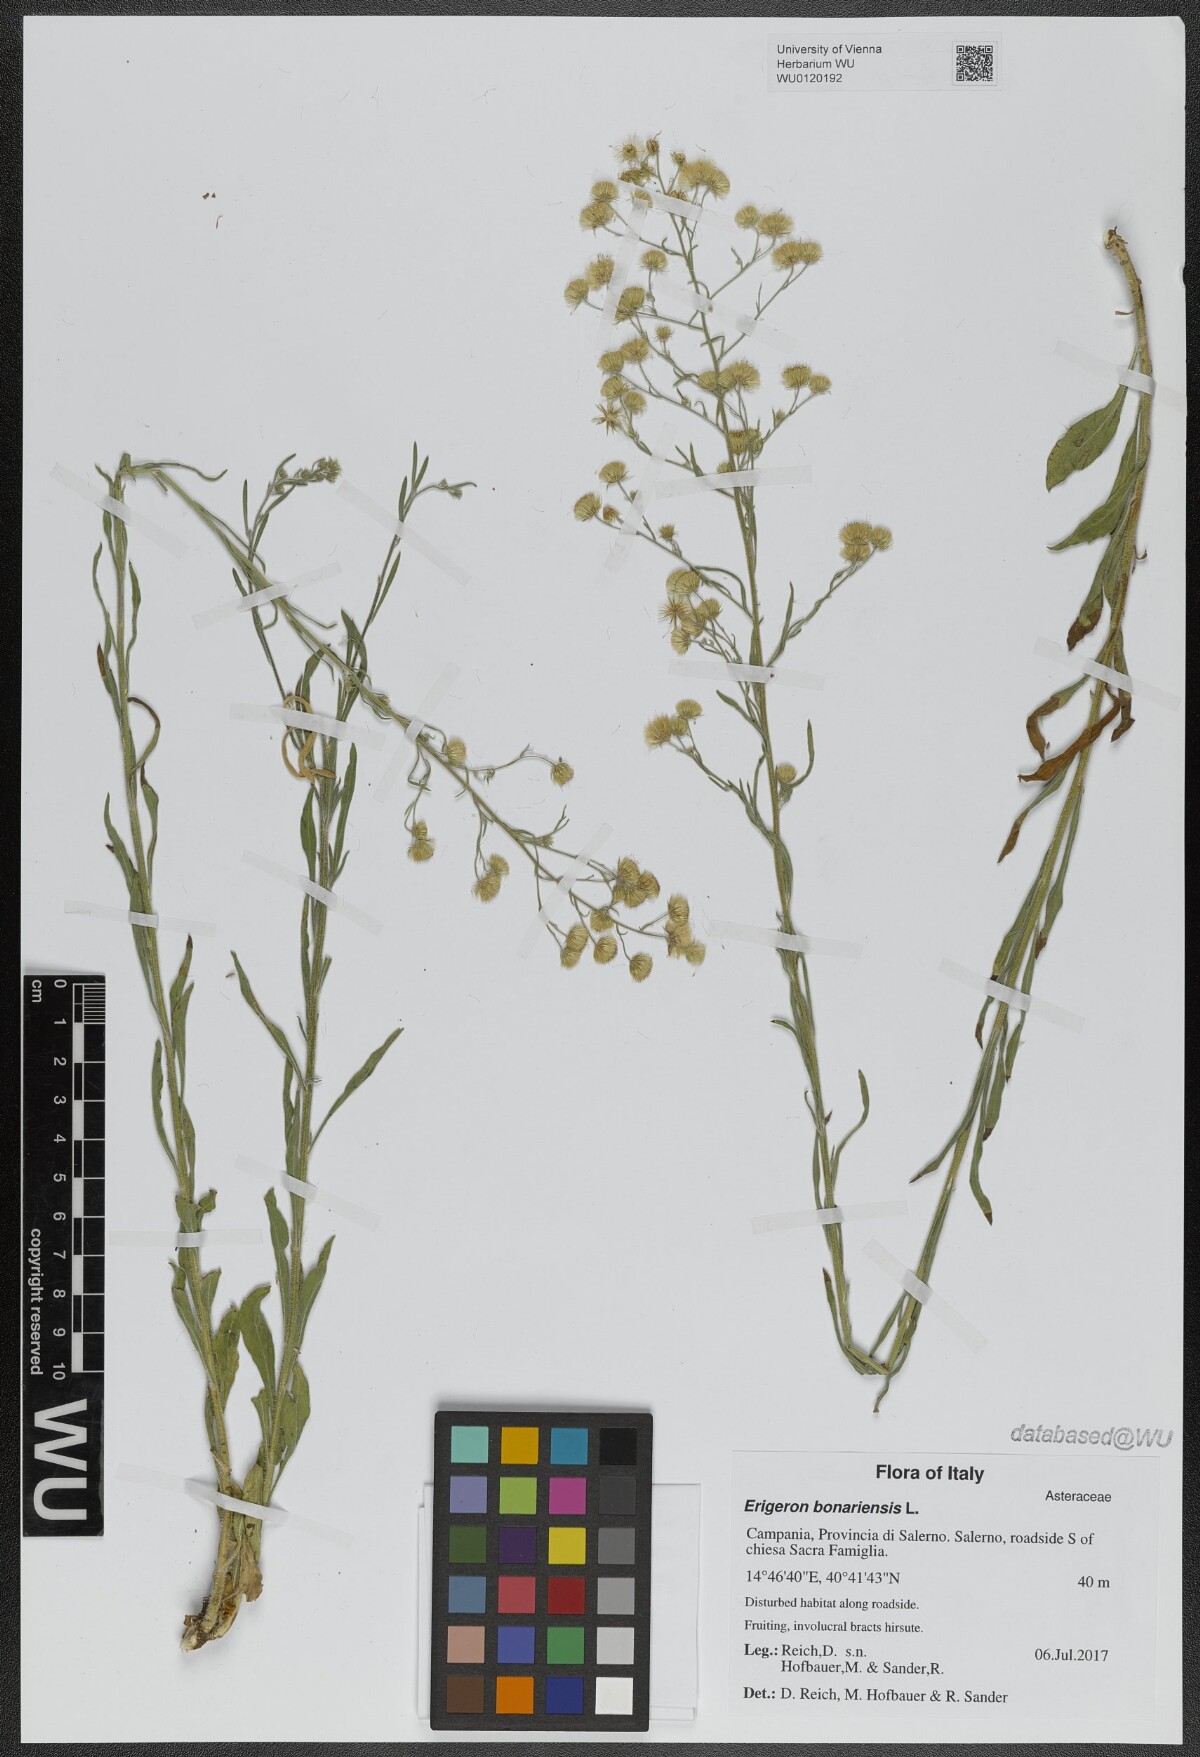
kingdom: Plantae
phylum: Tracheophyta
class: Magnoliopsida
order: Asterales
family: Asteraceae
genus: Erigeron
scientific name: Erigeron bonariensis
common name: Argentine fleabane
